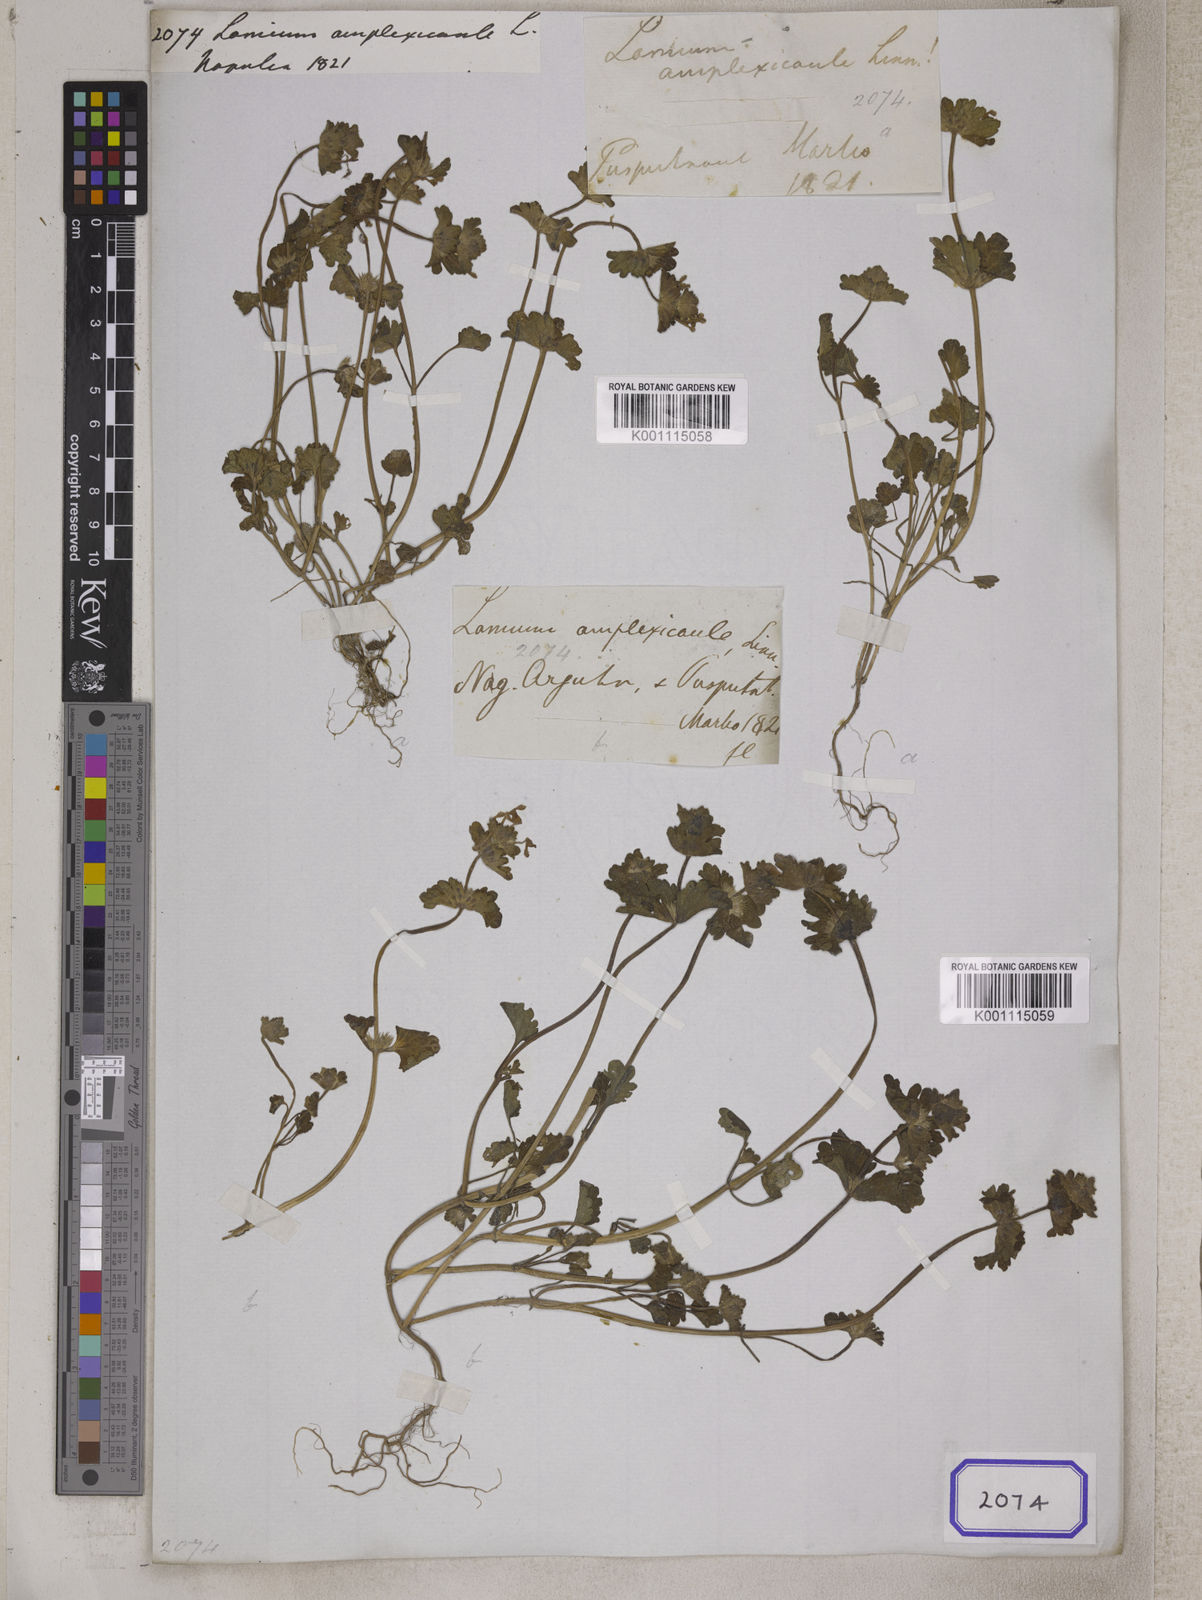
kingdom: Plantae
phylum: Tracheophyta
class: Magnoliopsida
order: Lamiales
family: Lamiaceae
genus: Lamium
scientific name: Lamium amplexicaule
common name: Henbit dead-nettle
